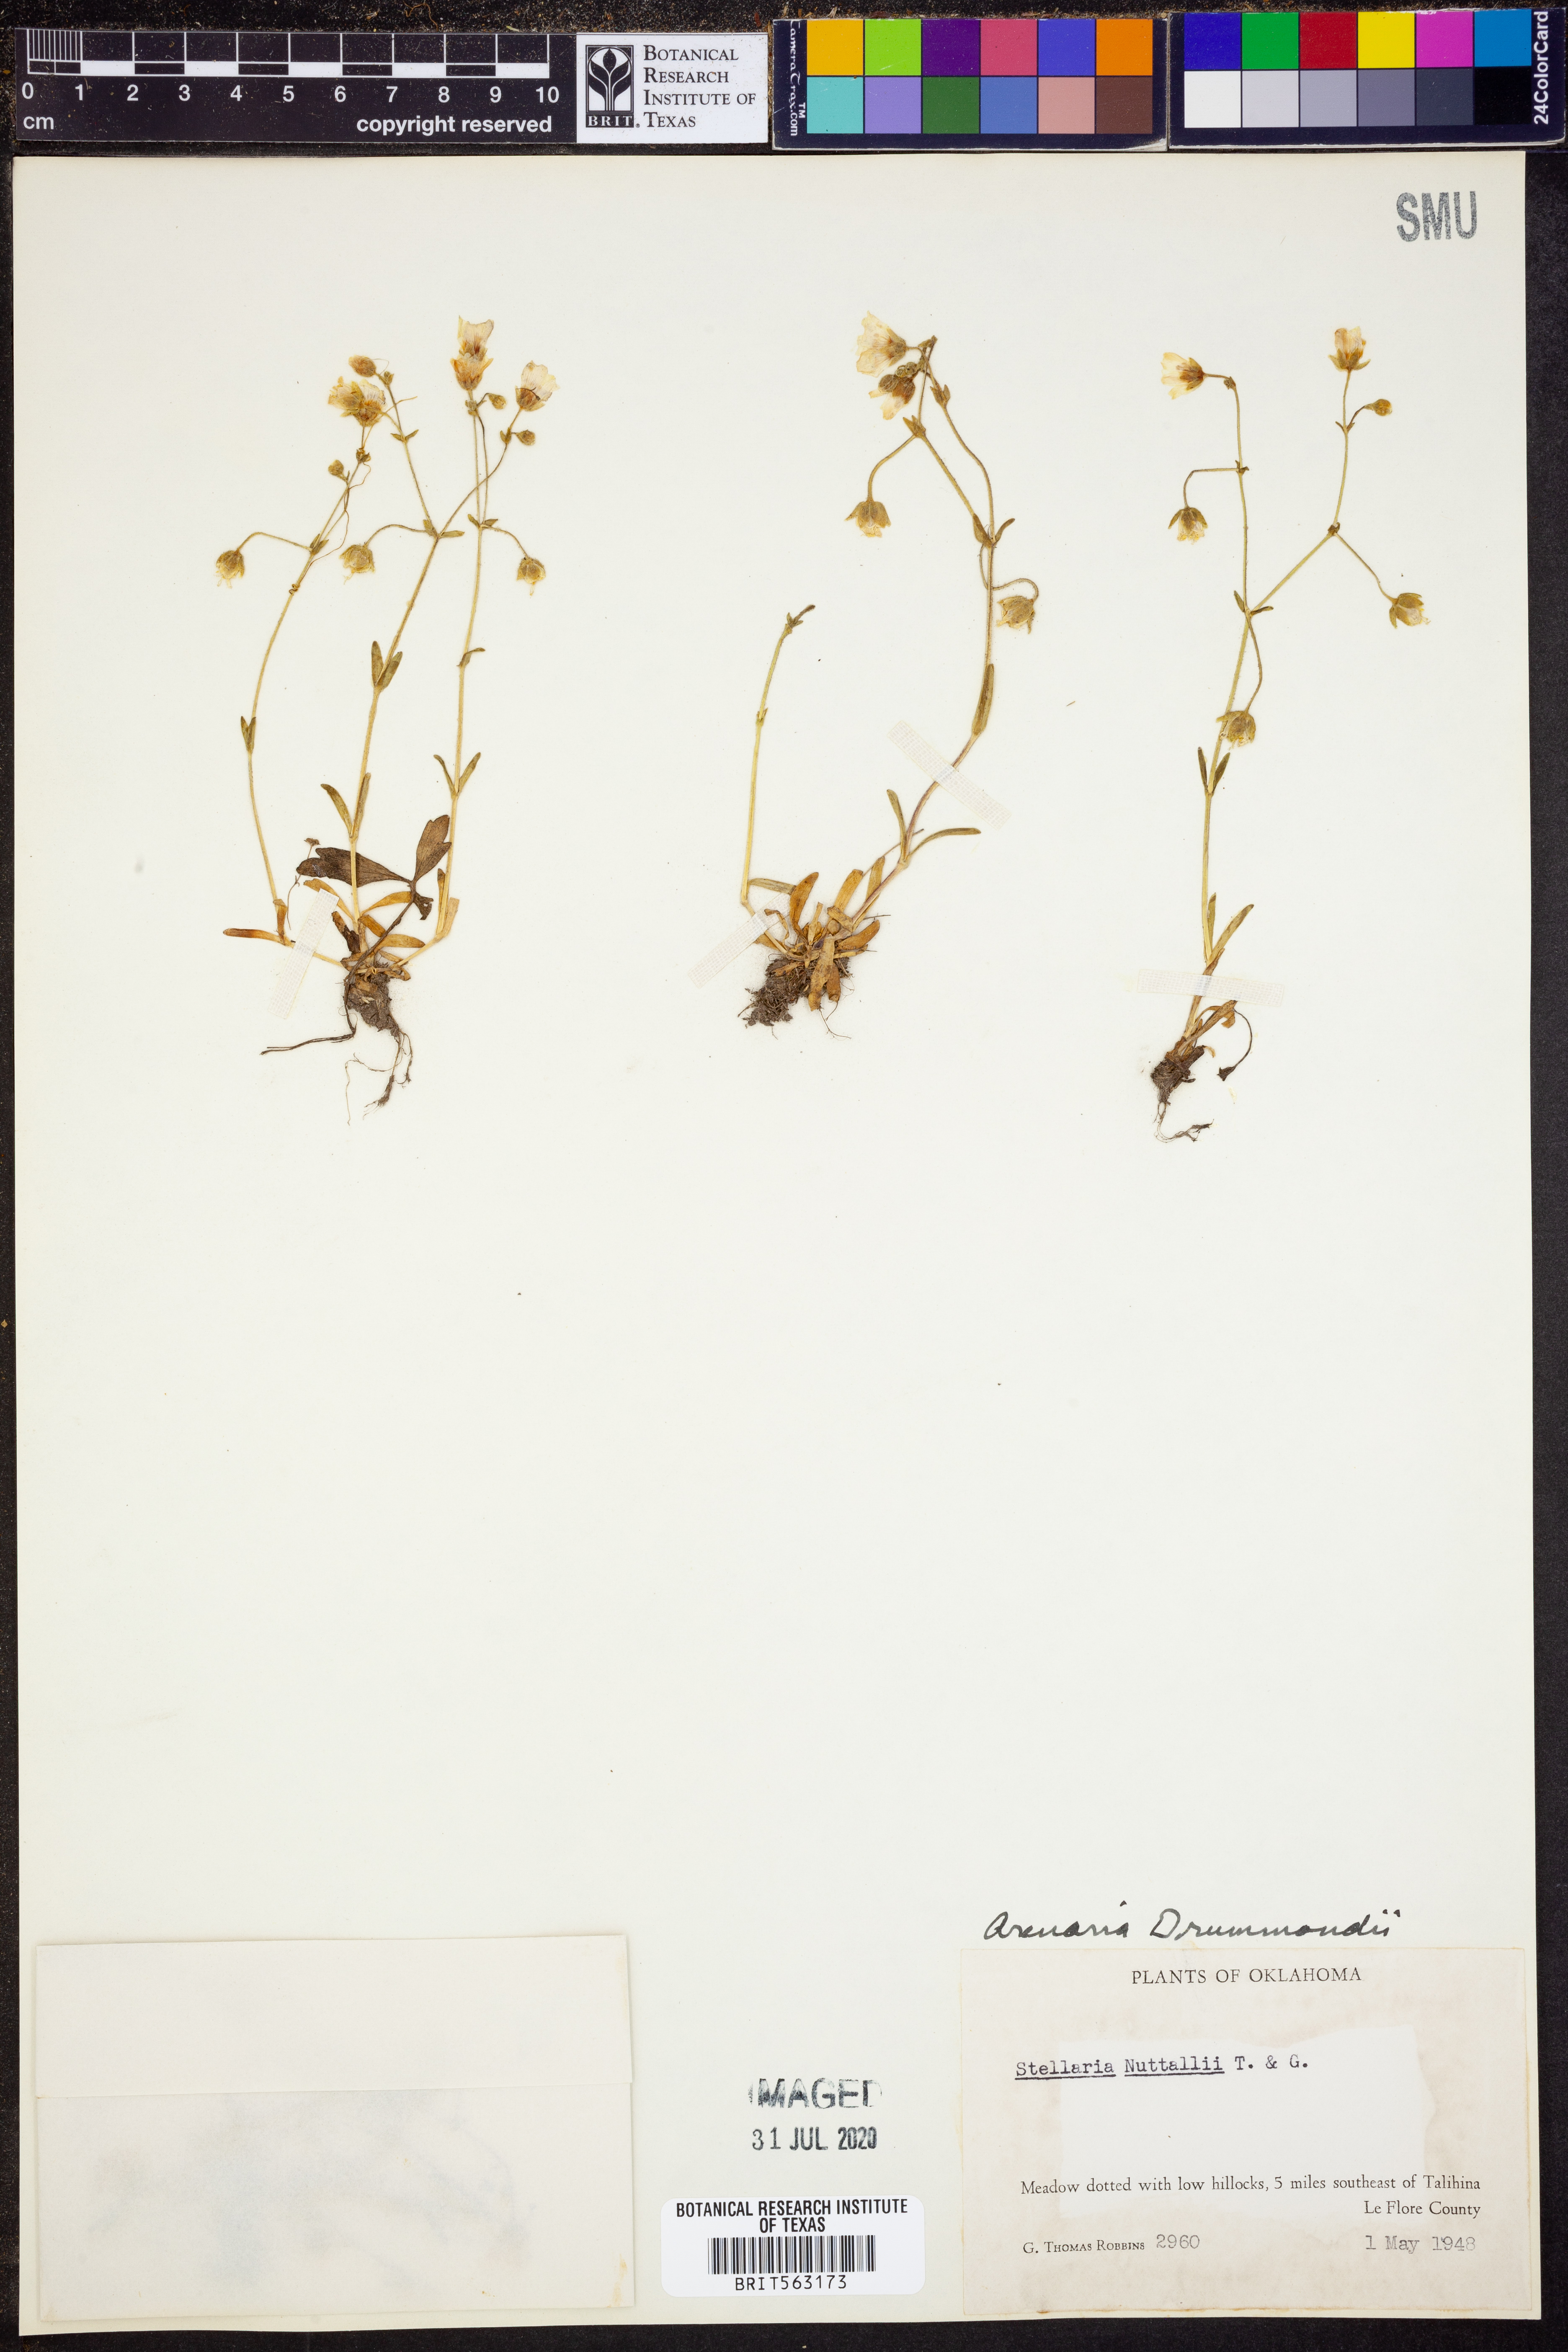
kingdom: Plantae
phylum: Tracheophyta
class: Magnoliopsida
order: Caryophyllales
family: Caryophyllaceae
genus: Geocarpon
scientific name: Geocarpon nuttallii
